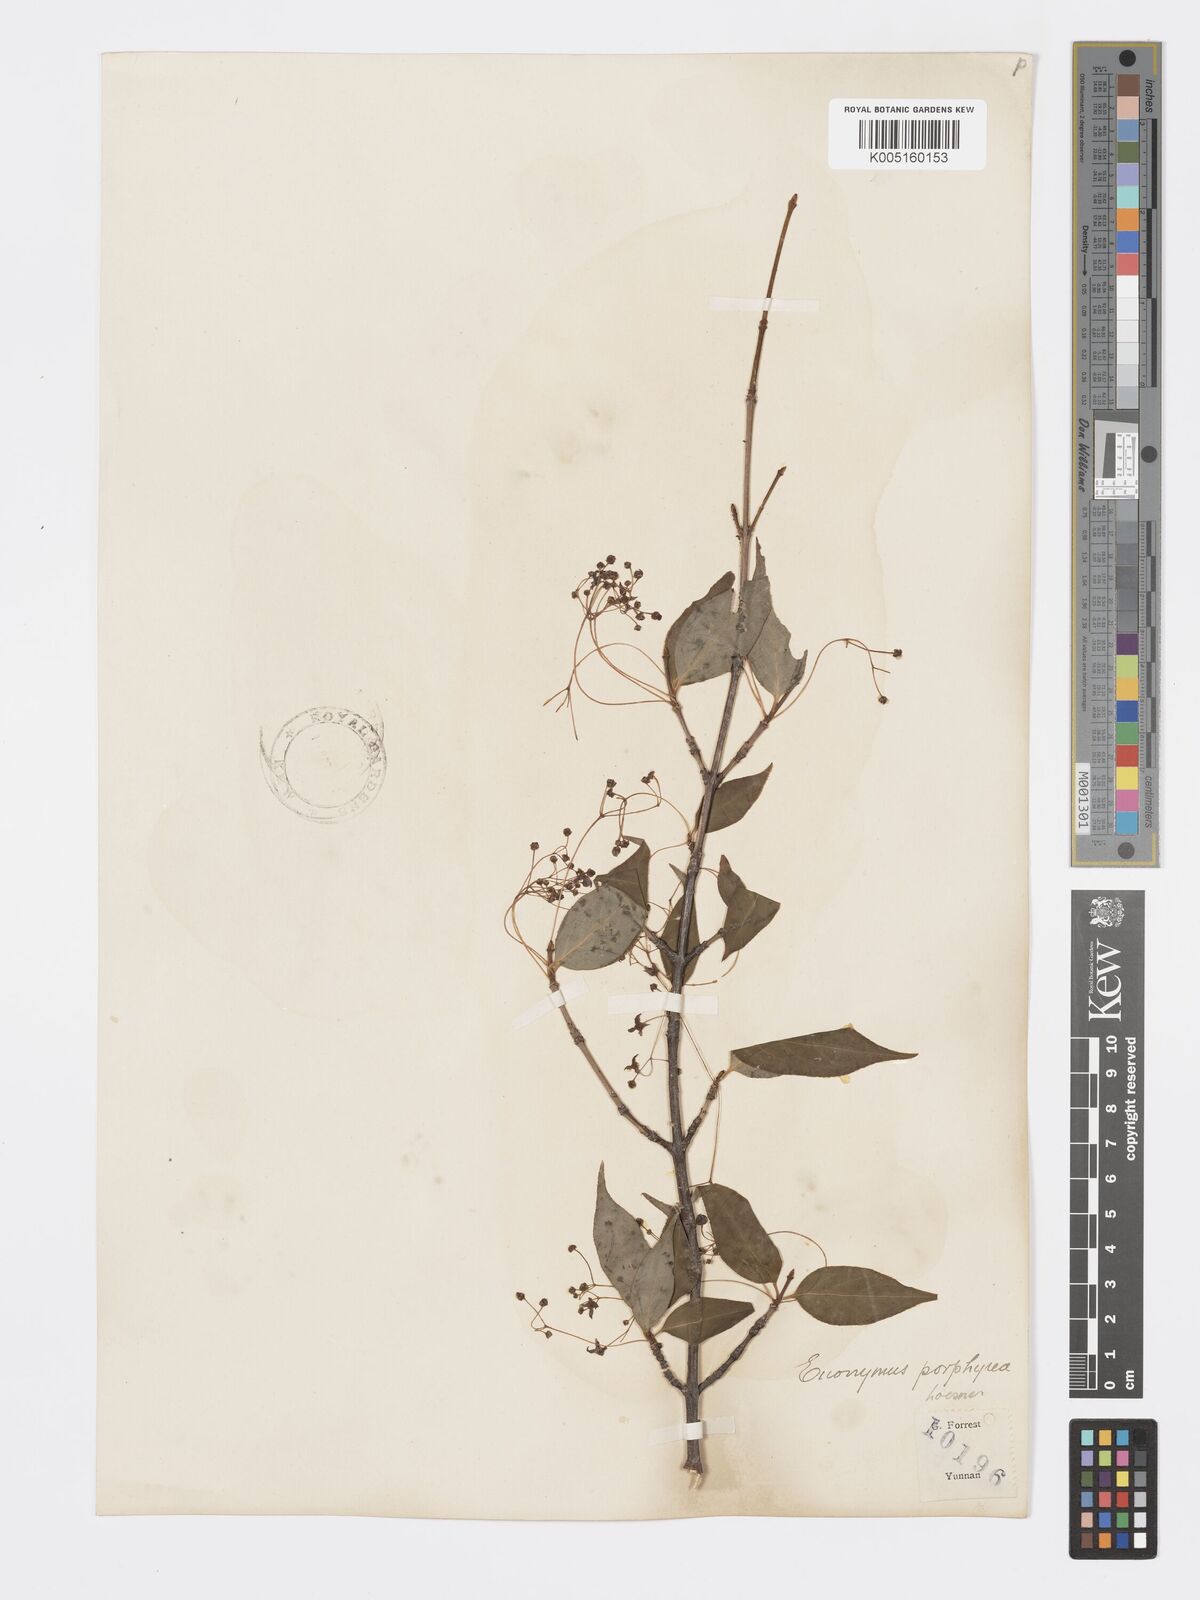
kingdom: Plantae
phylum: Tracheophyta
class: Magnoliopsida
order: Celastrales
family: Celastraceae
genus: Euonymus
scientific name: Euonymus frigidus
